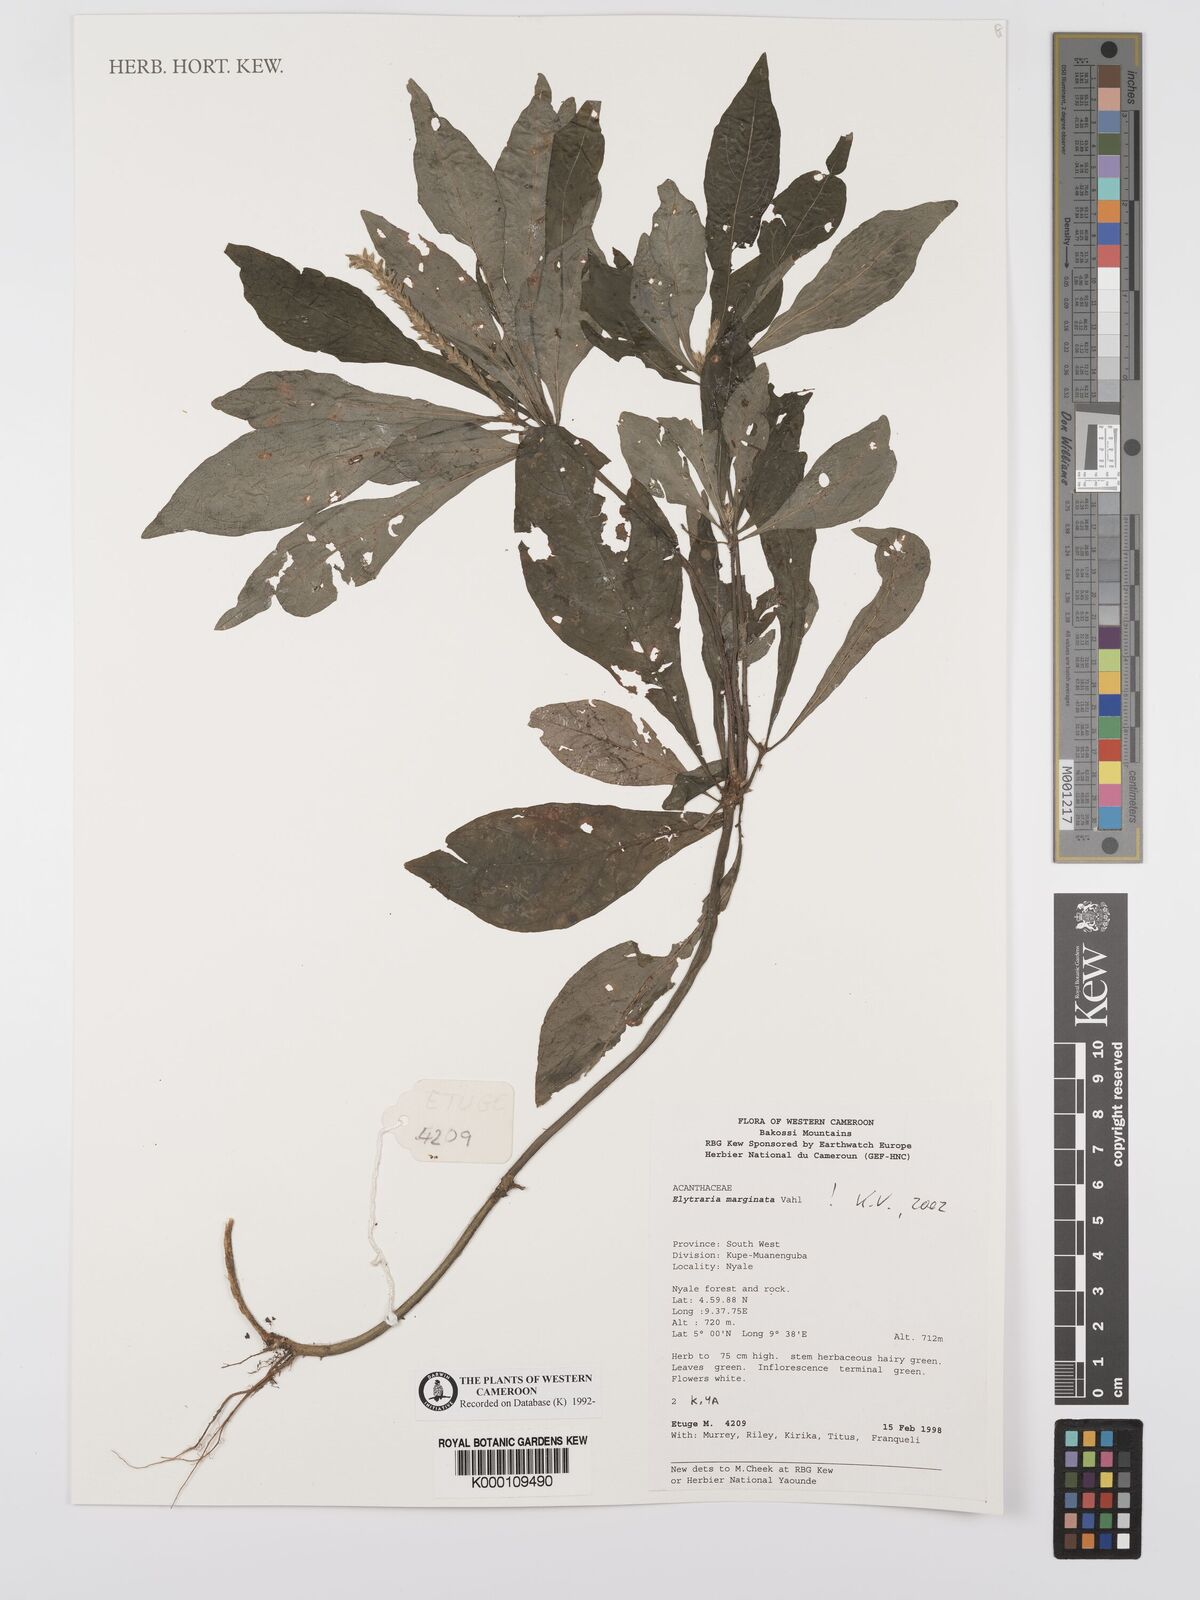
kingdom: Plantae
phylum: Tracheophyta
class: Magnoliopsida
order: Lamiales
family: Acanthaceae
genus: Elytraria
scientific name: Elytraria marginata
